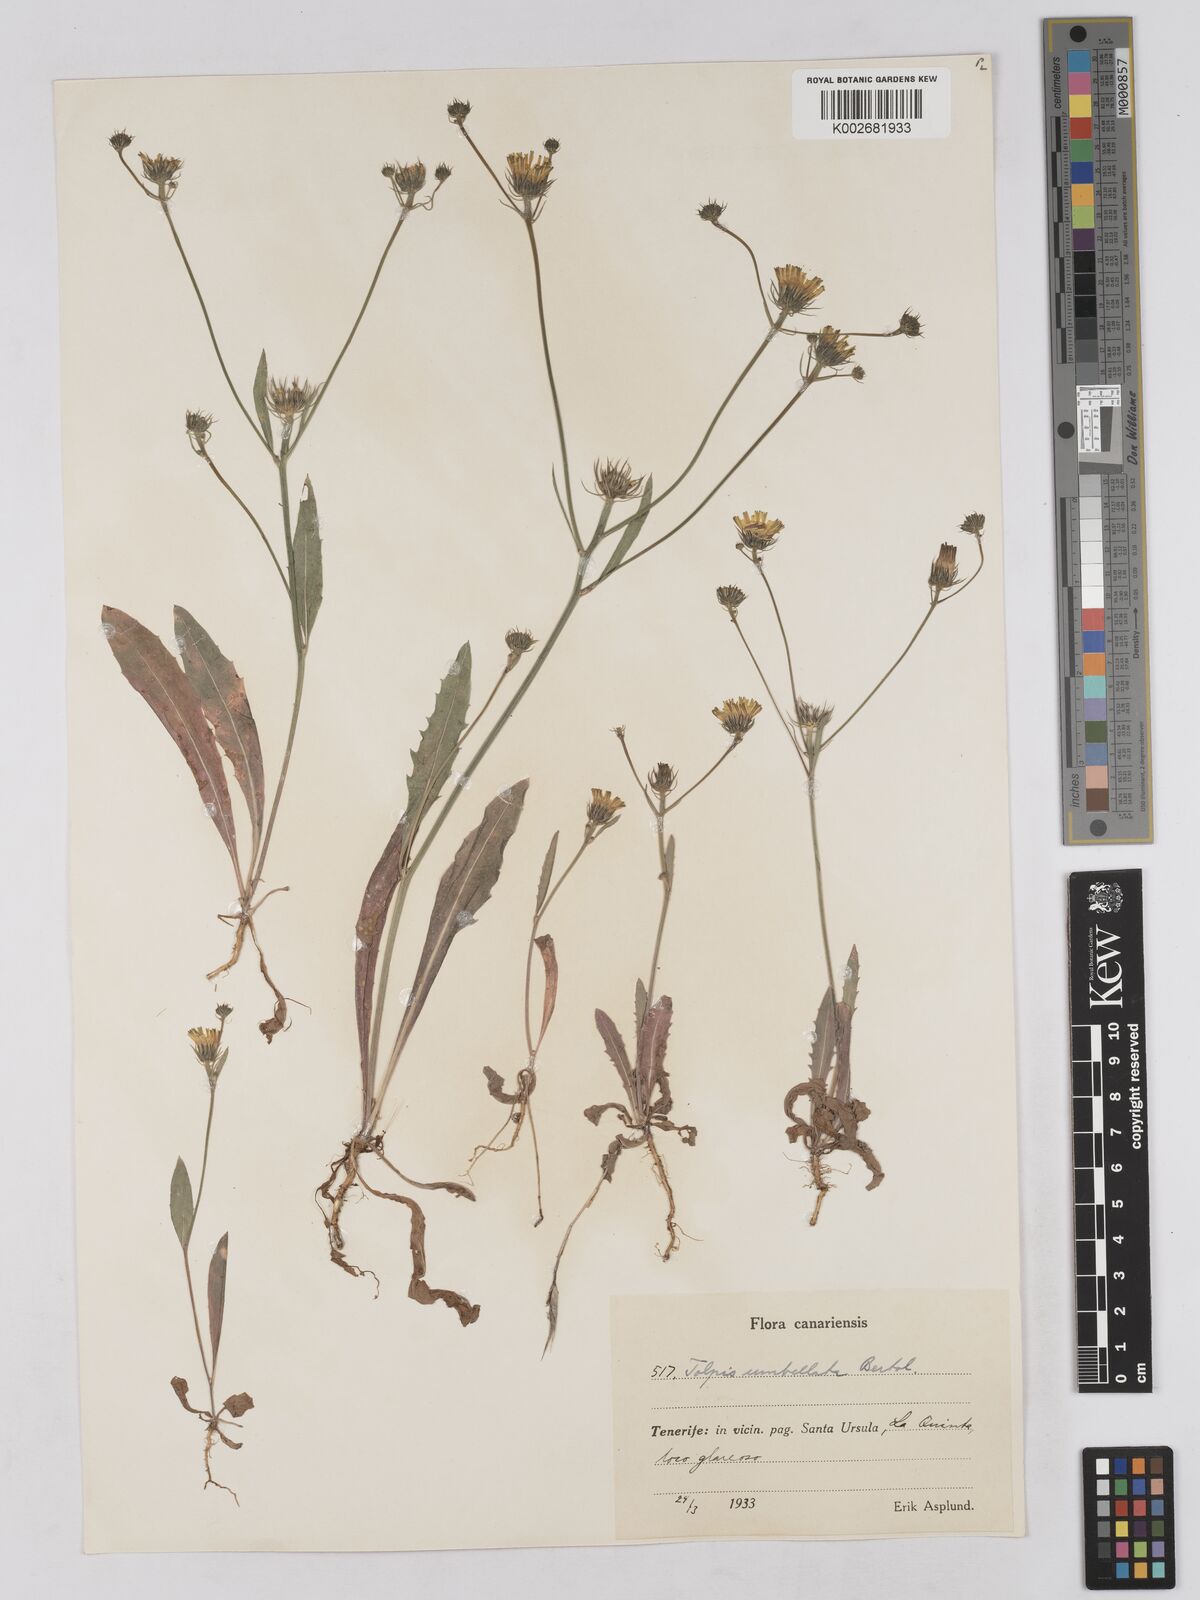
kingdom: Plantae
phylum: Tracheophyta
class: Magnoliopsida
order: Asterales
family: Asteraceae
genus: Tolpis
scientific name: Tolpis umbellata
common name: Yellow hawkweed
